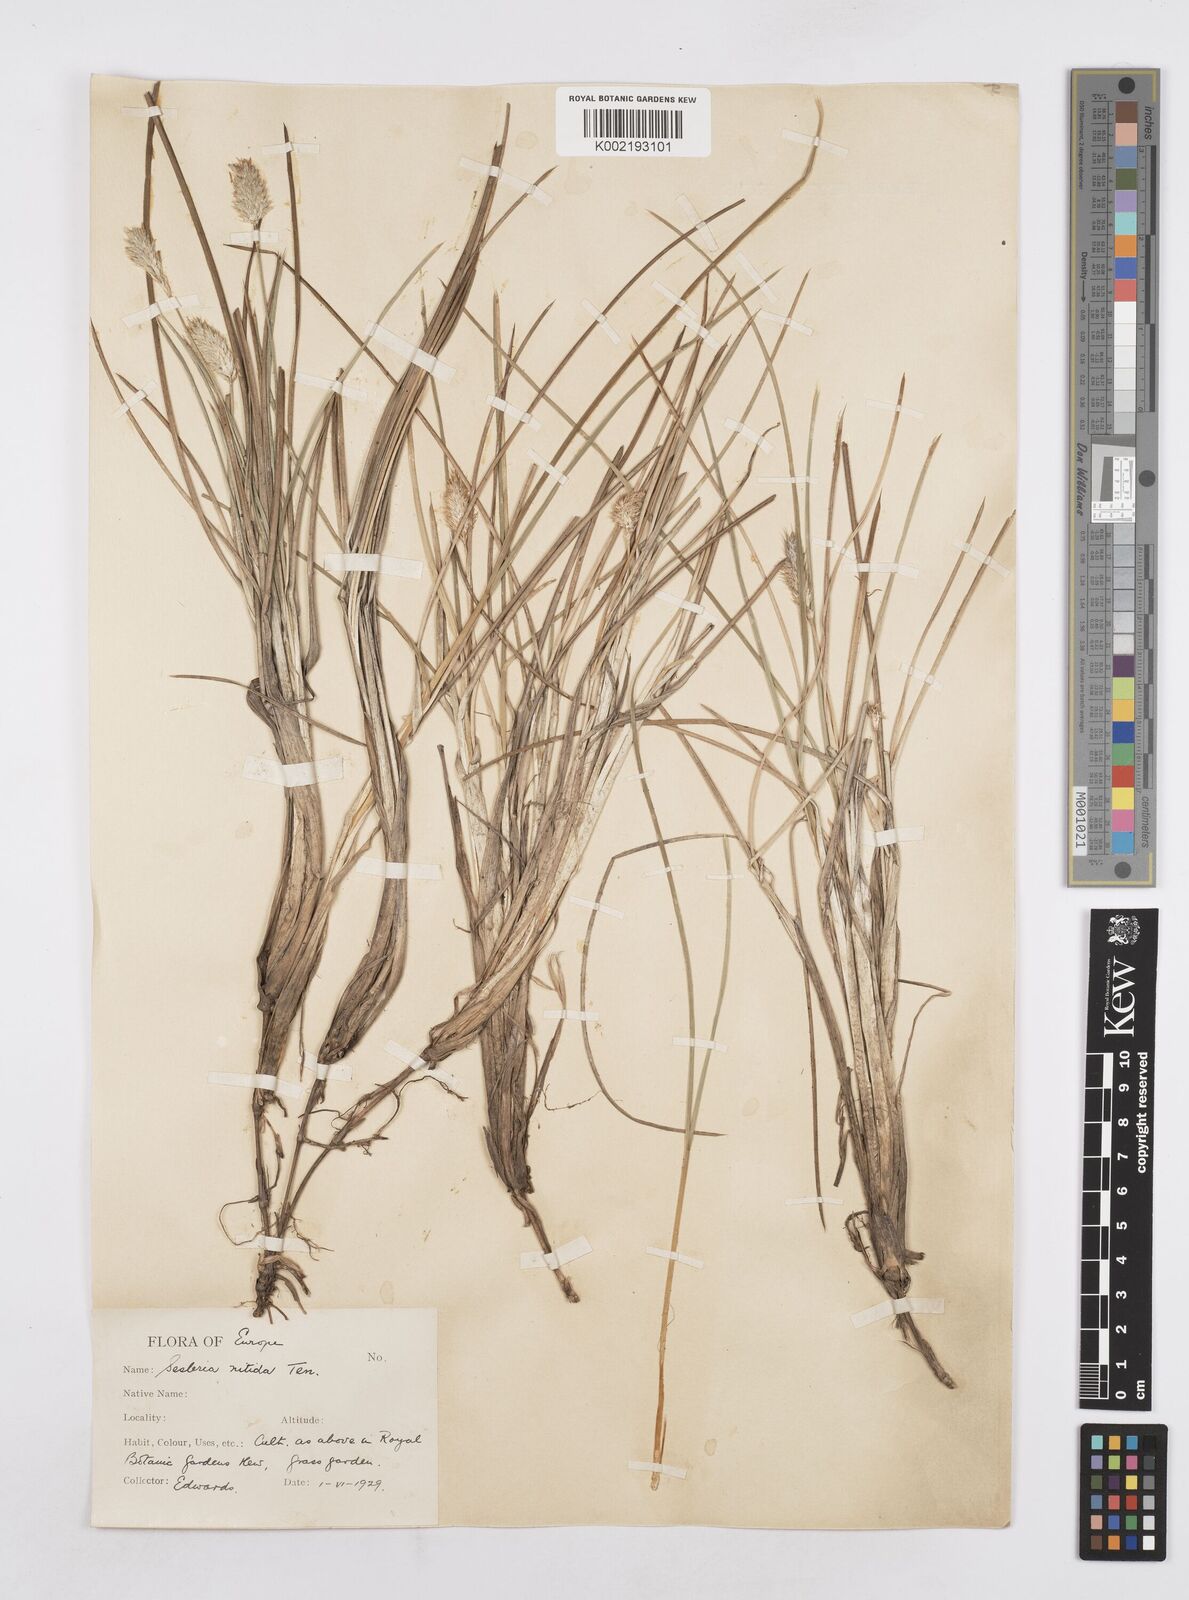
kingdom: Plantae
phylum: Tracheophyta
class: Liliopsida
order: Poales
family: Poaceae
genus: Sesleria
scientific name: Sesleria
